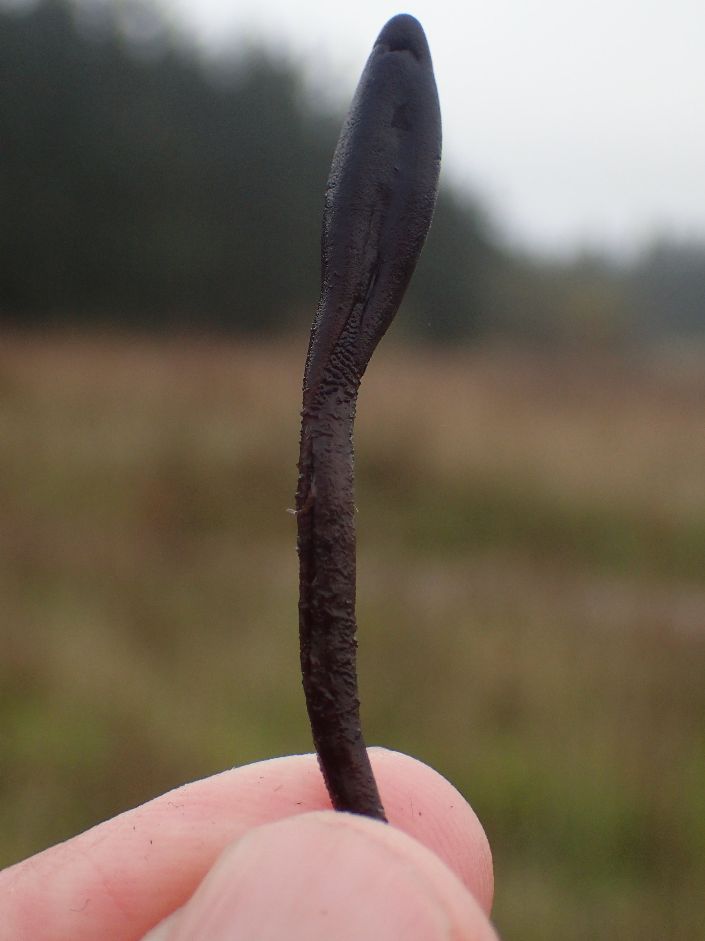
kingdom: Fungi
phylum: Ascomycota
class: Geoglossomycetes
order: Geoglossales
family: Geoglossaceae
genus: Hemileucoglossum
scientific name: Hemileucoglossum elongatum
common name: småsporet jordtunge
